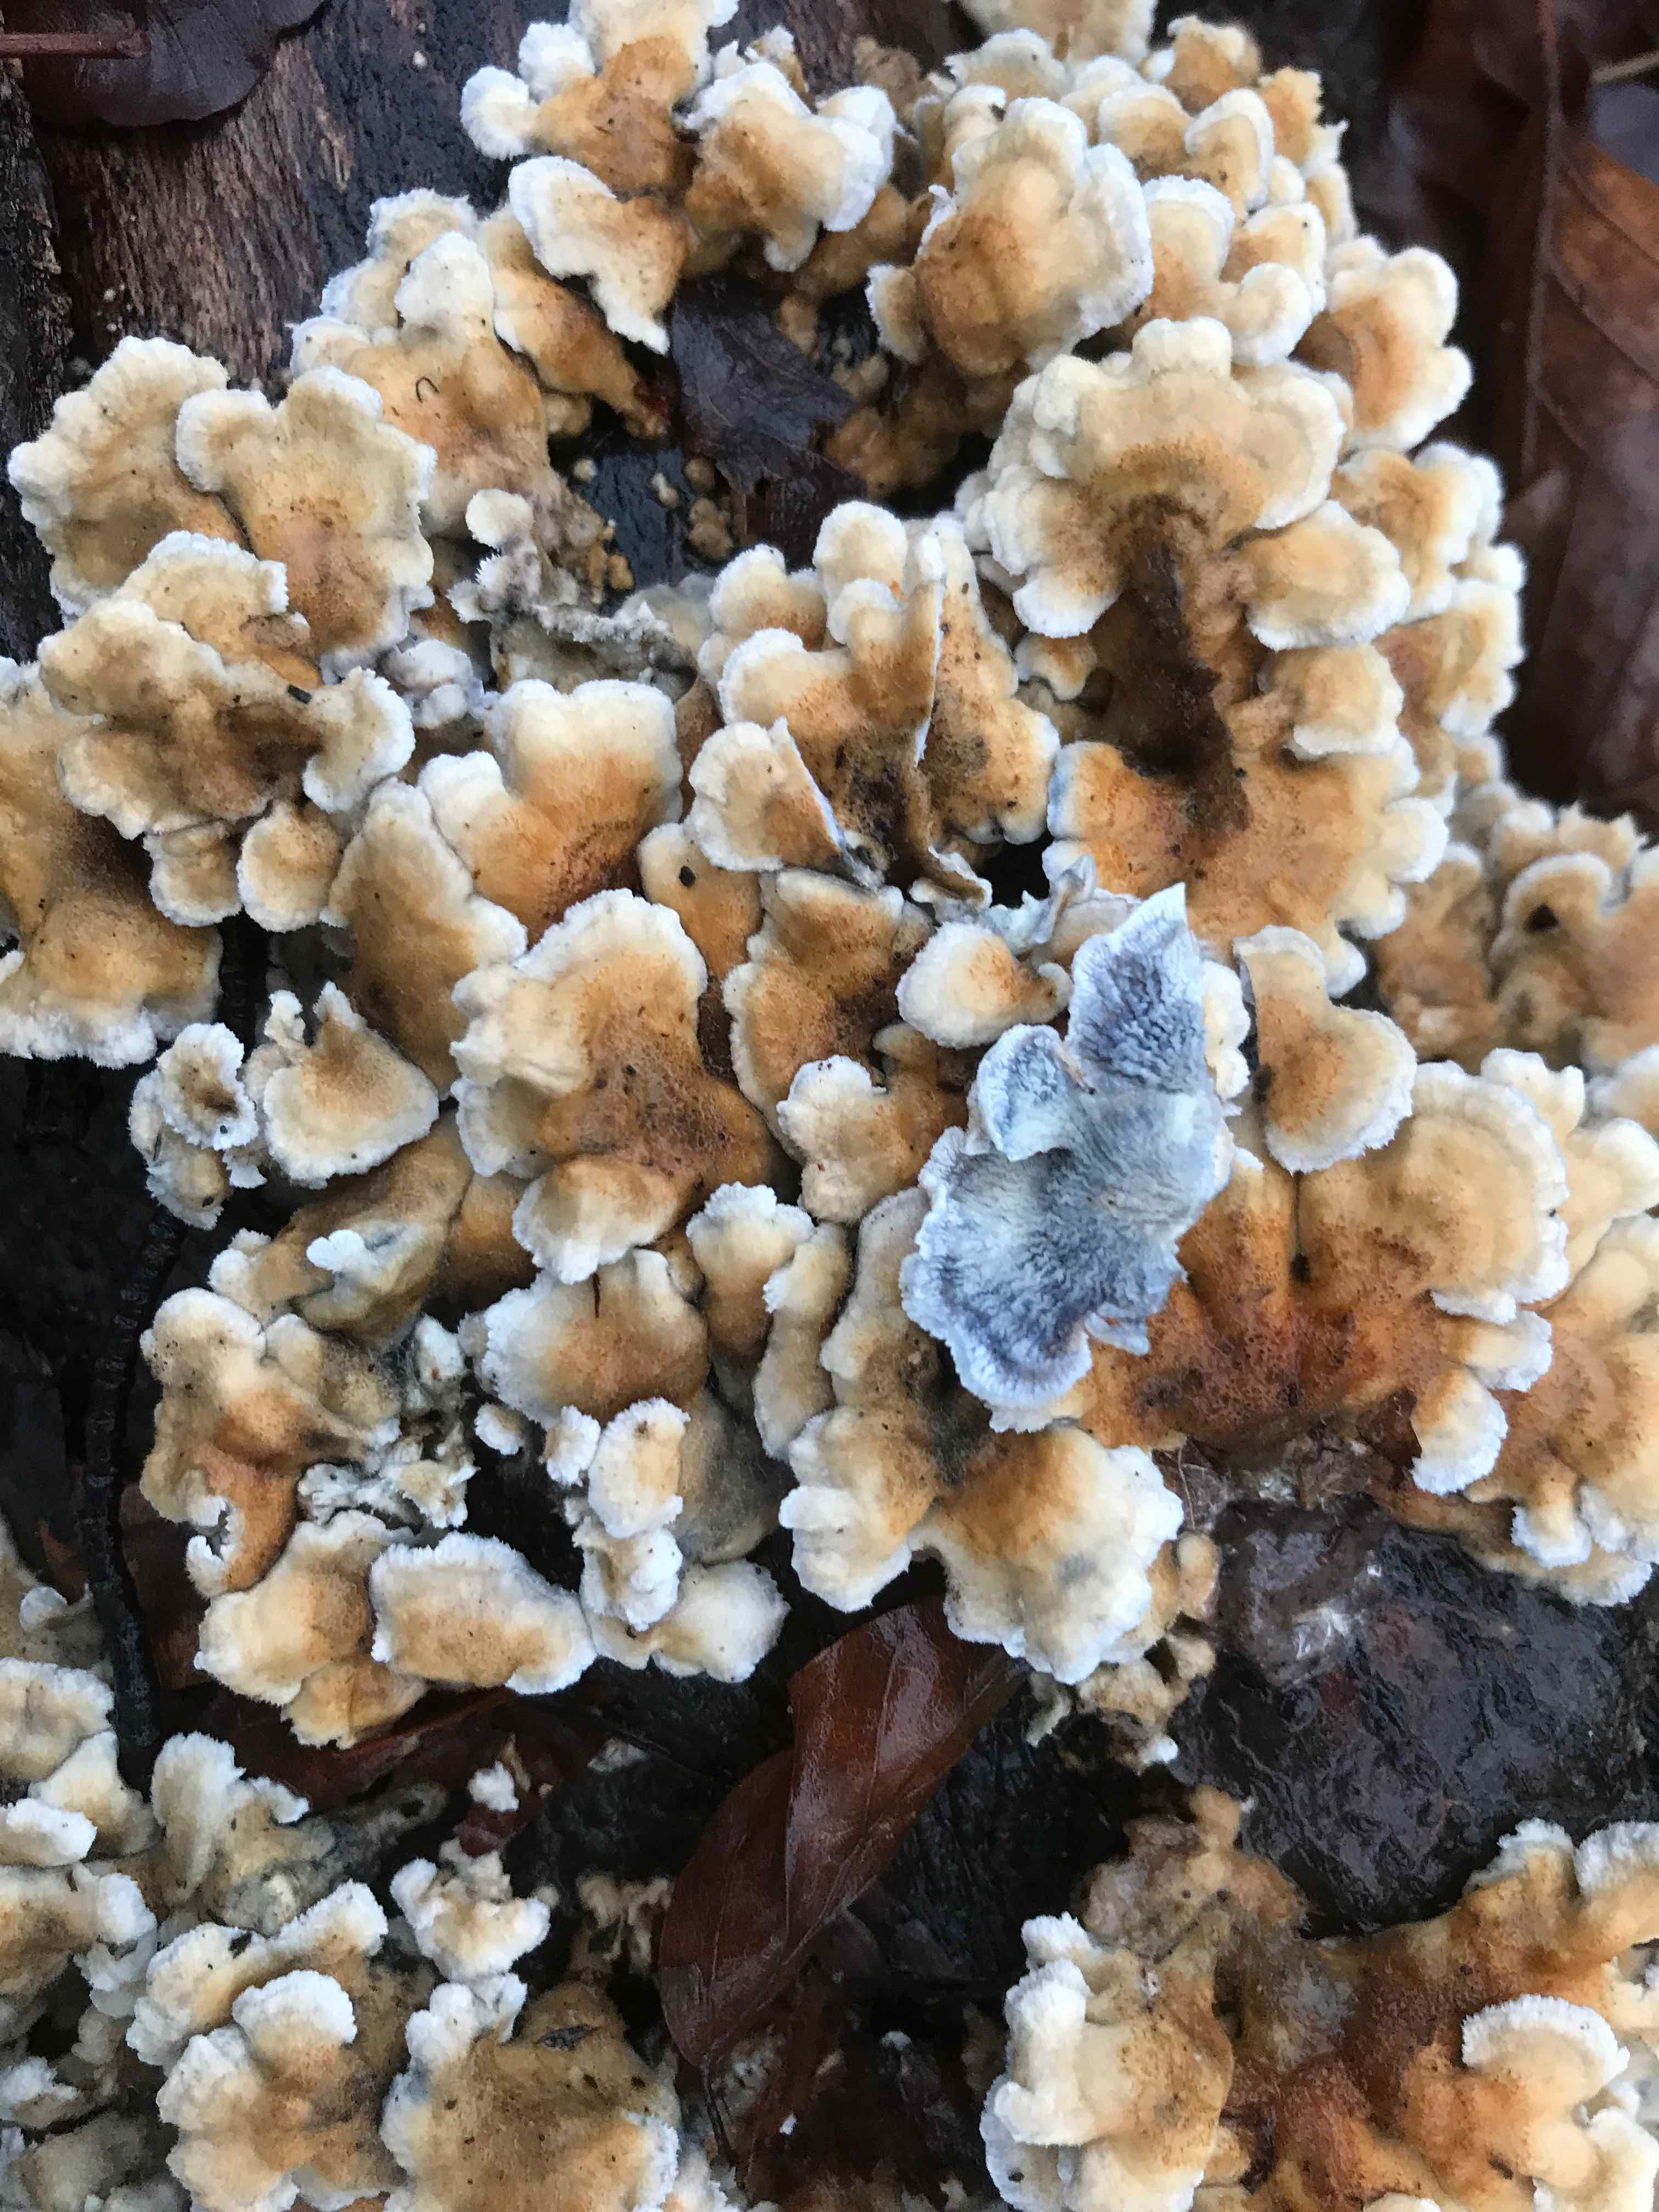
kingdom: Fungi
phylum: Basidiomycota
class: Agaricomycetes
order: Amylocorticiales
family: Amylocorticiaceae
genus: Plicaturopsis
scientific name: Plicaturopsis crispa
